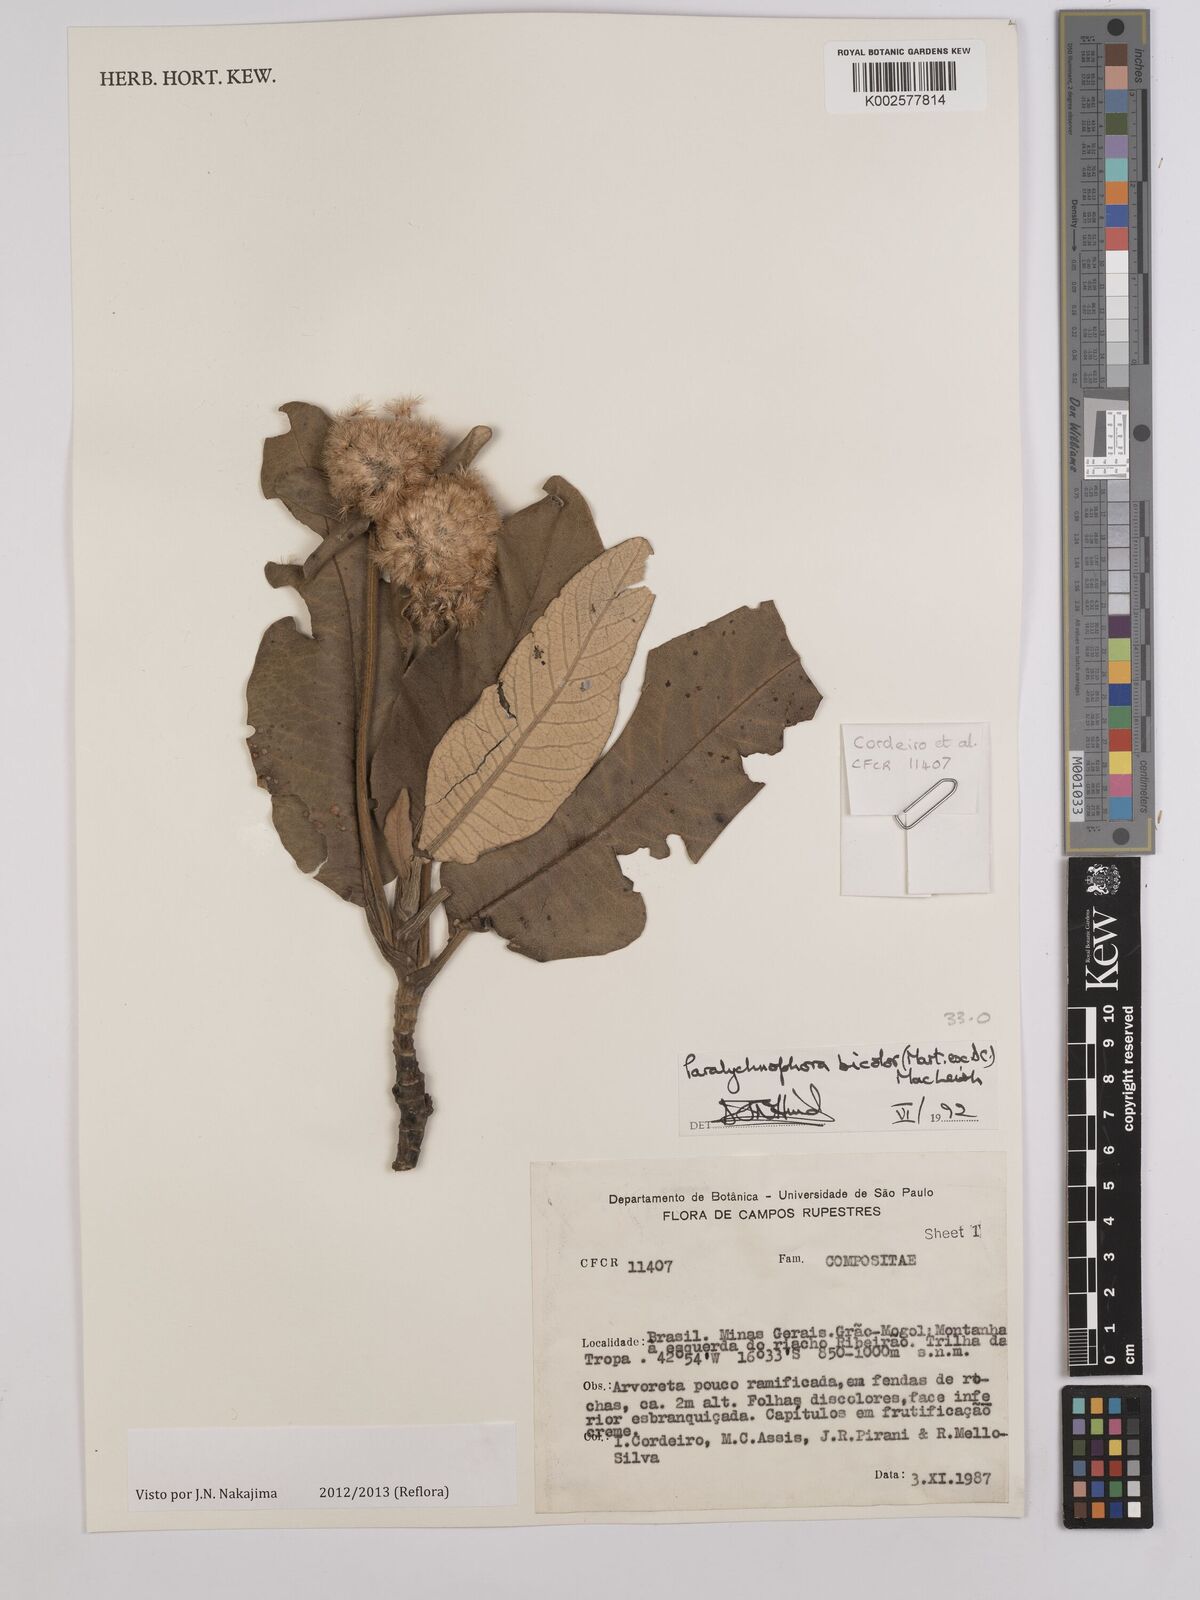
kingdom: Plantae
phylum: Tracheophyta
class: Magnoliopsida
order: Asterales
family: Asteraceae
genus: Paralychnophora
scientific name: Paralychnophora bicolor
